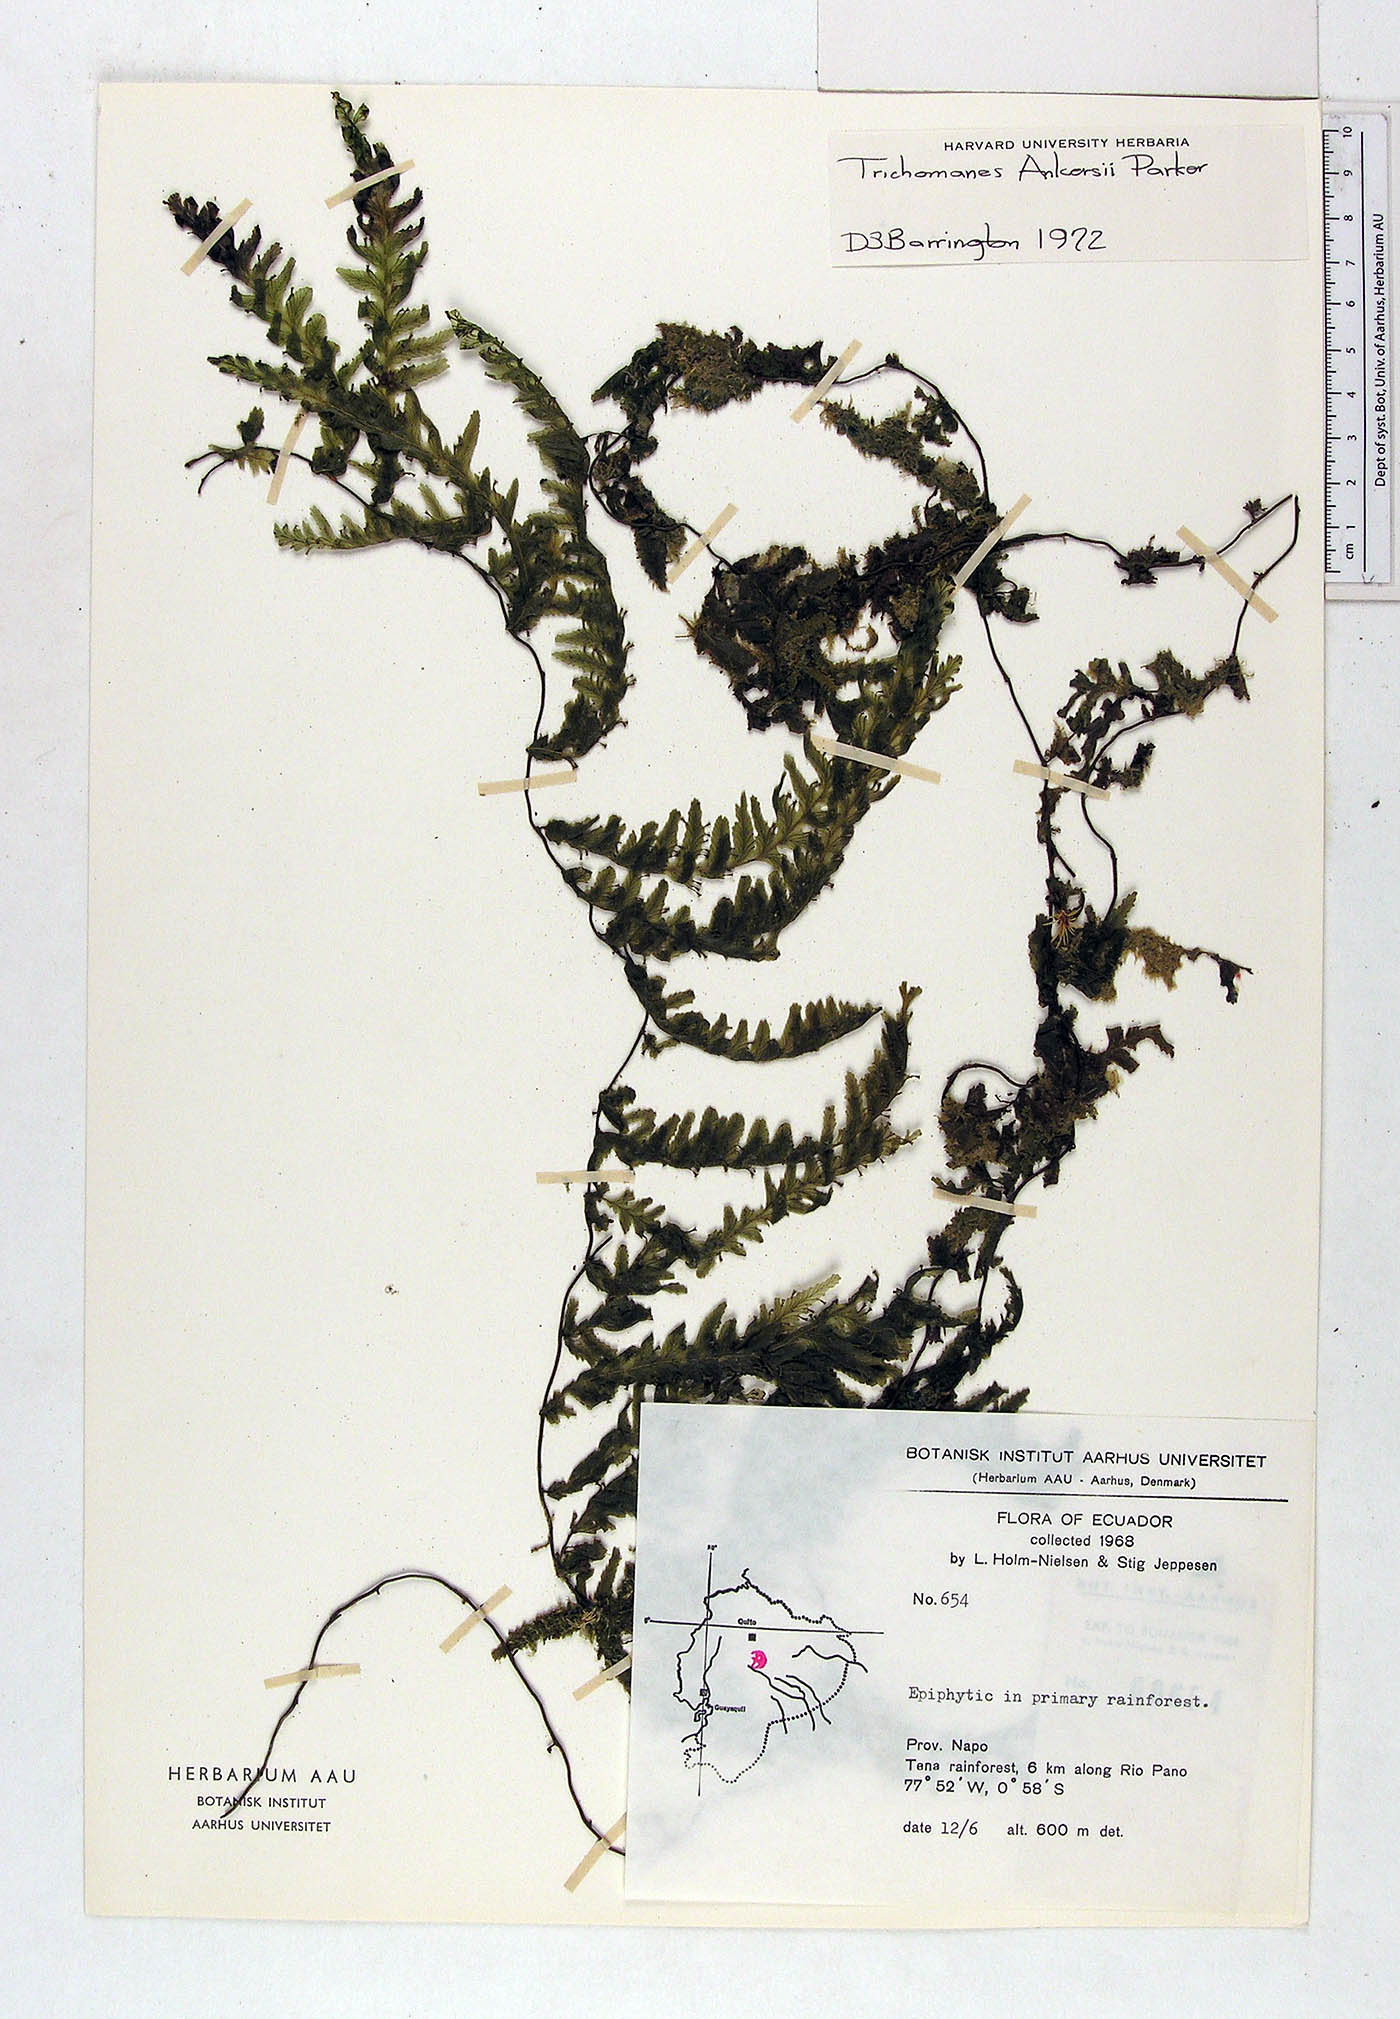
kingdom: Plantae
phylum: Tracheophyta
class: Polypodiopsida
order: Hymenophyllales
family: Hymenophyllaceae
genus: Trichomanes
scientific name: Trichomanes ankersii
